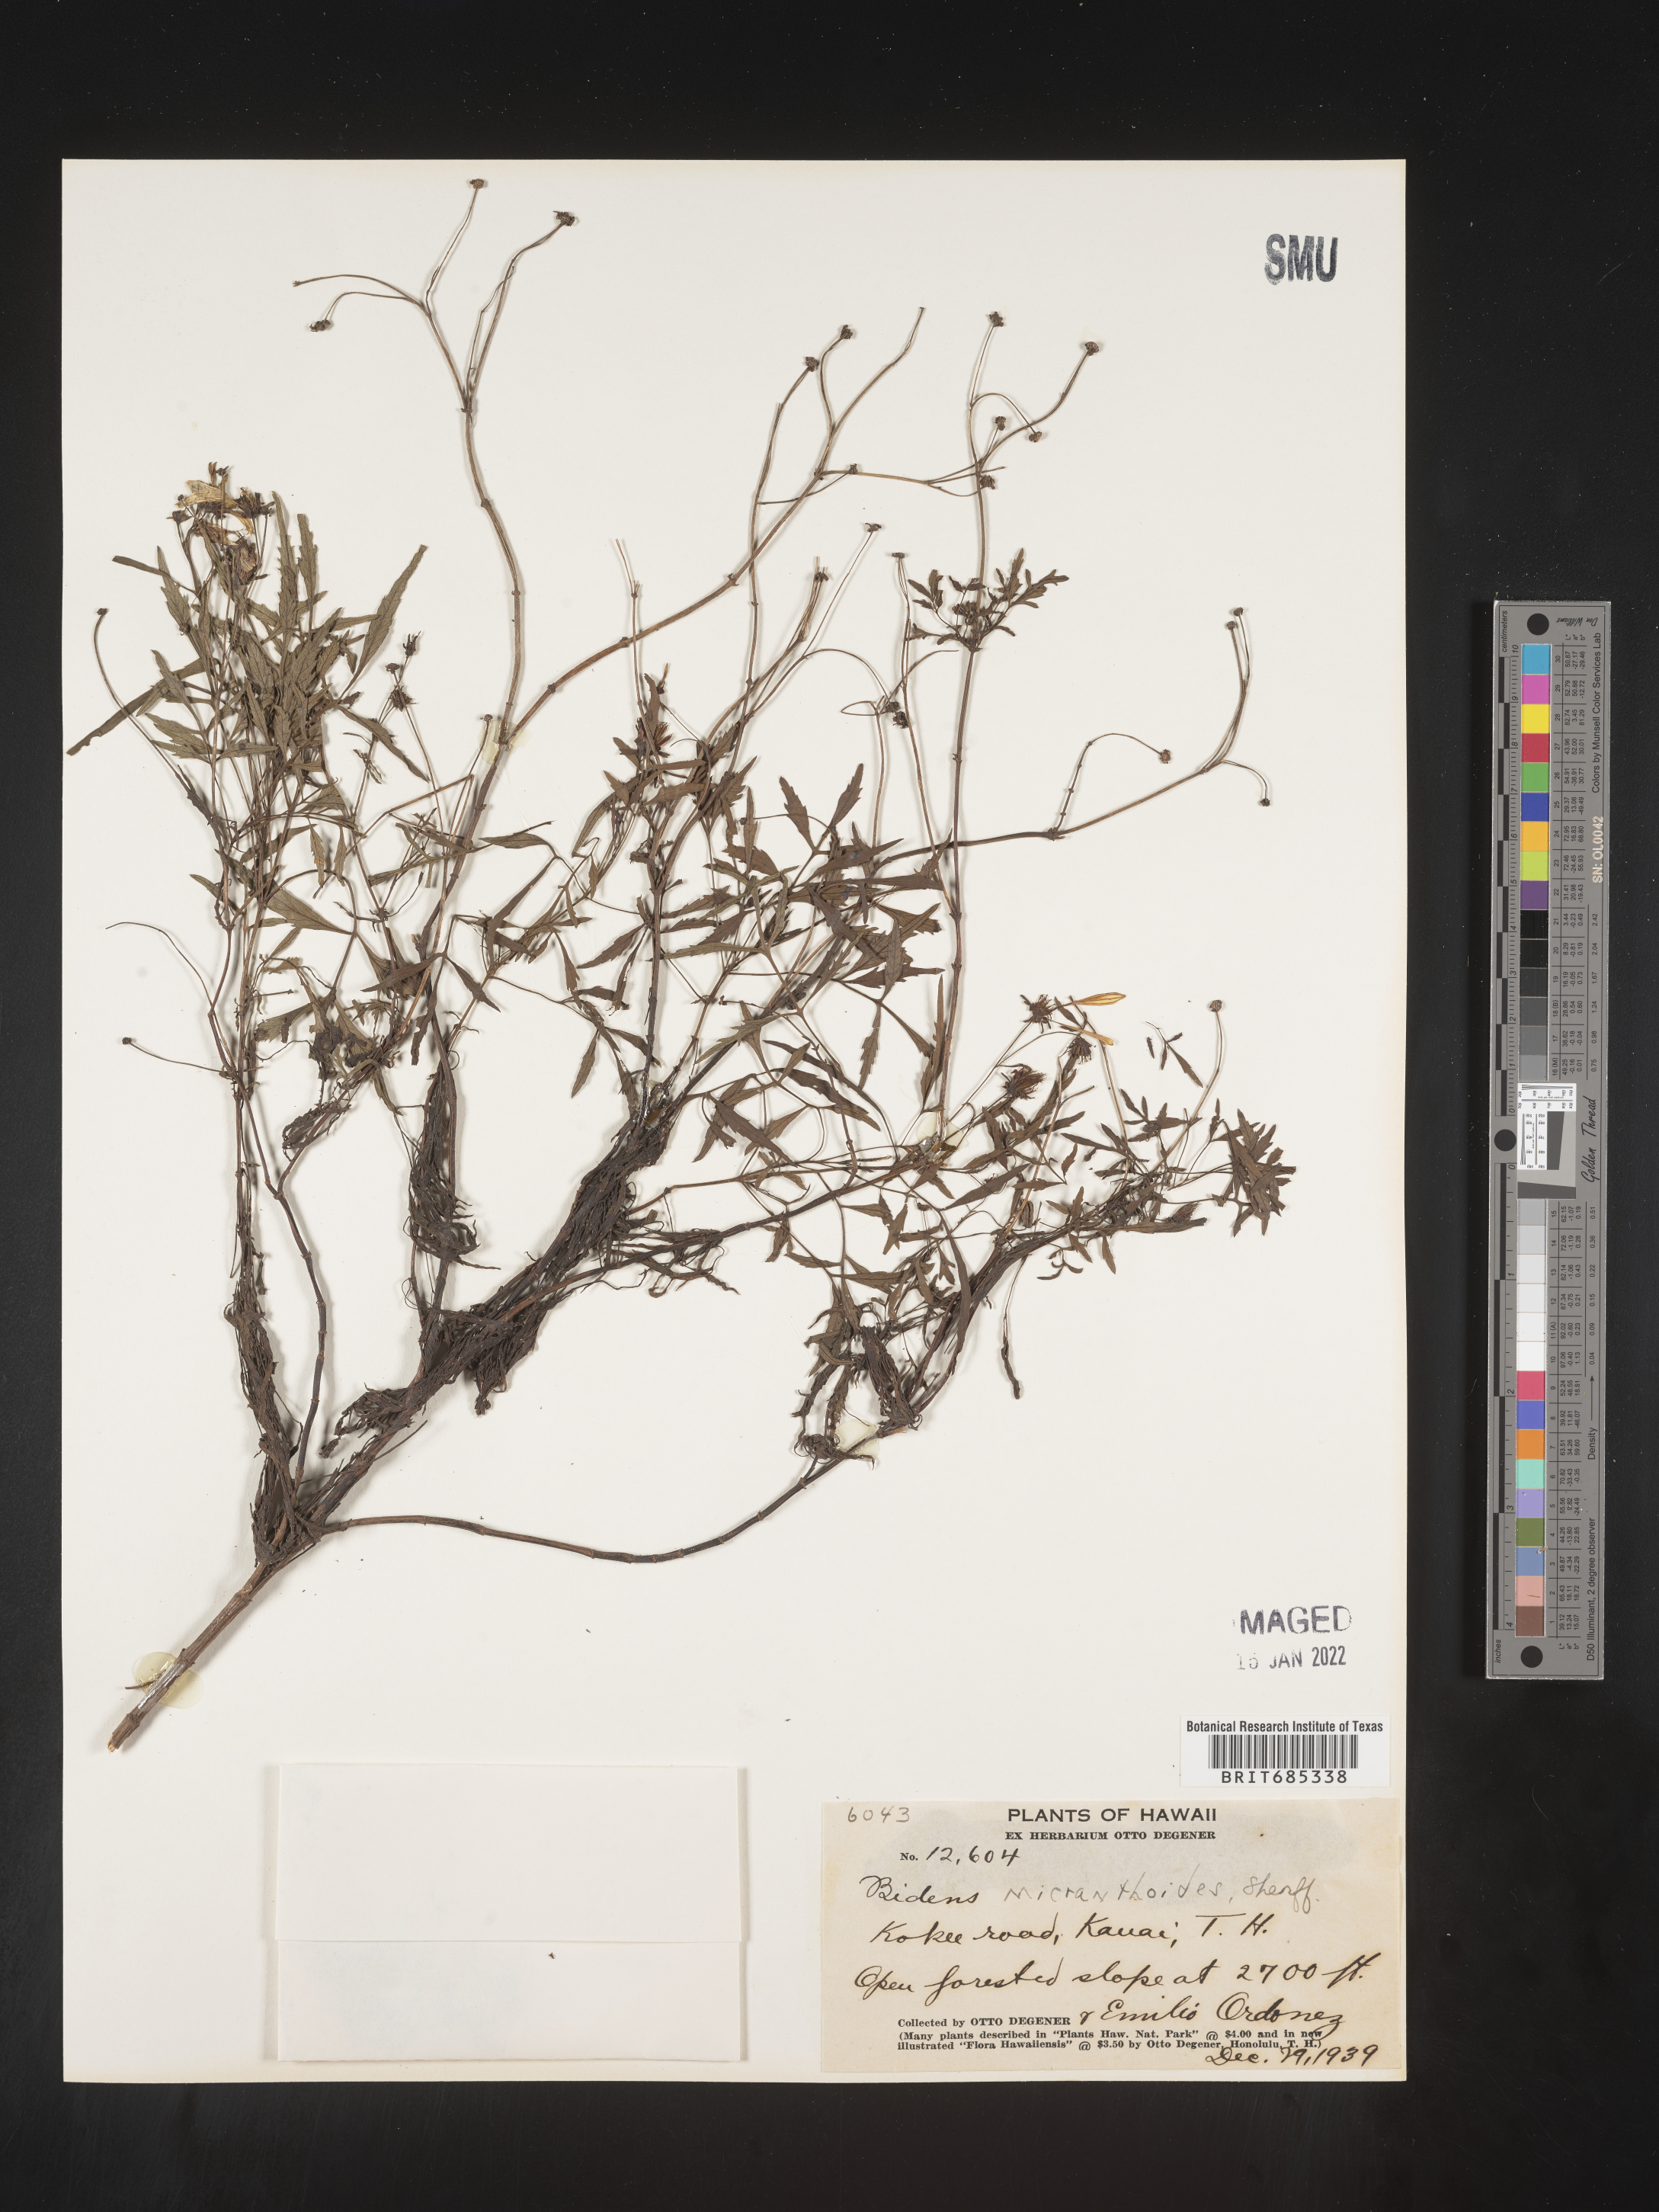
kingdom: Plantae
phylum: Tracheophyta
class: Magnoliopsida
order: Asterales
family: Asteraceae
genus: Bidens
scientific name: Bidens
